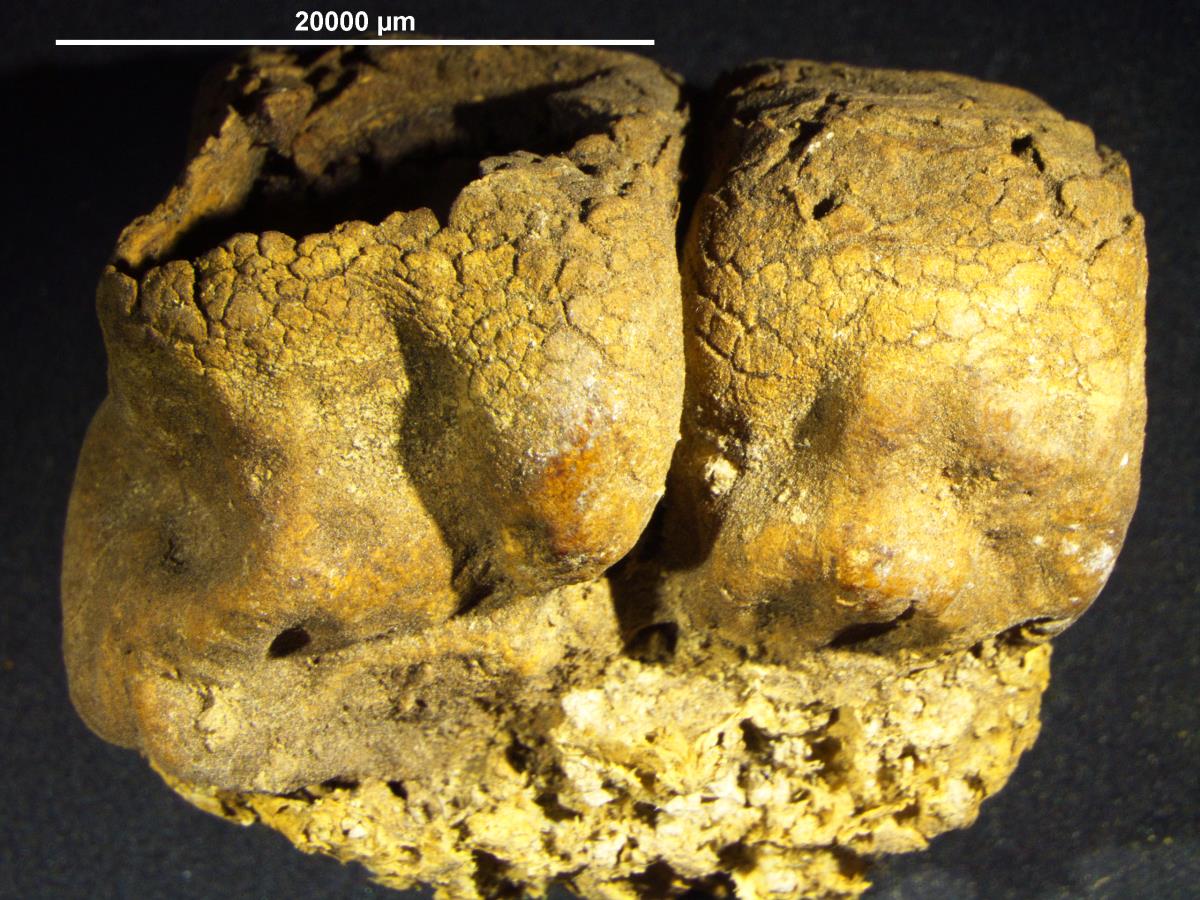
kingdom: Fungi
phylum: Basidiomycota
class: Agaricomycetes
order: Boletales
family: Sclerodermataceae
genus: Scleroderma
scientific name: Scleroderma flavidum
